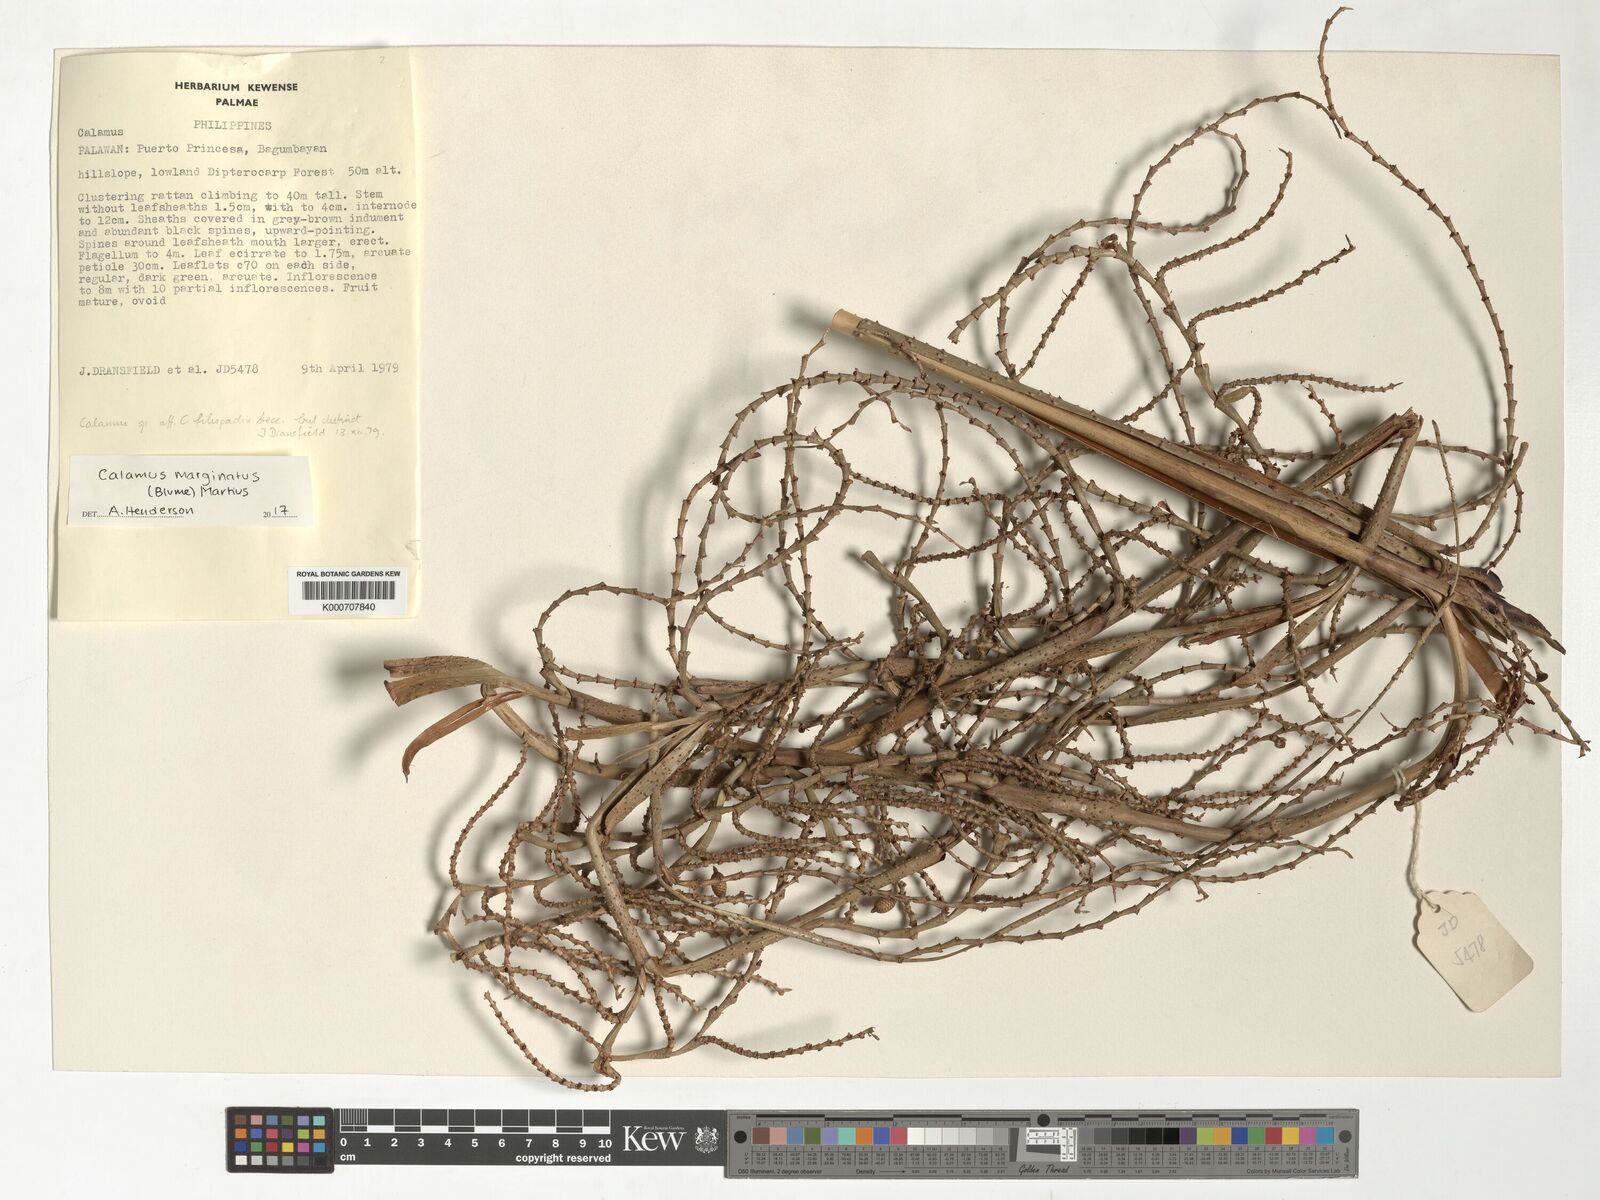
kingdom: Plantae
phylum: Tracheophyta
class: Liliopsida
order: Arecales
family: Arecaceae
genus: Calamus
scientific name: Calamus marginatus
